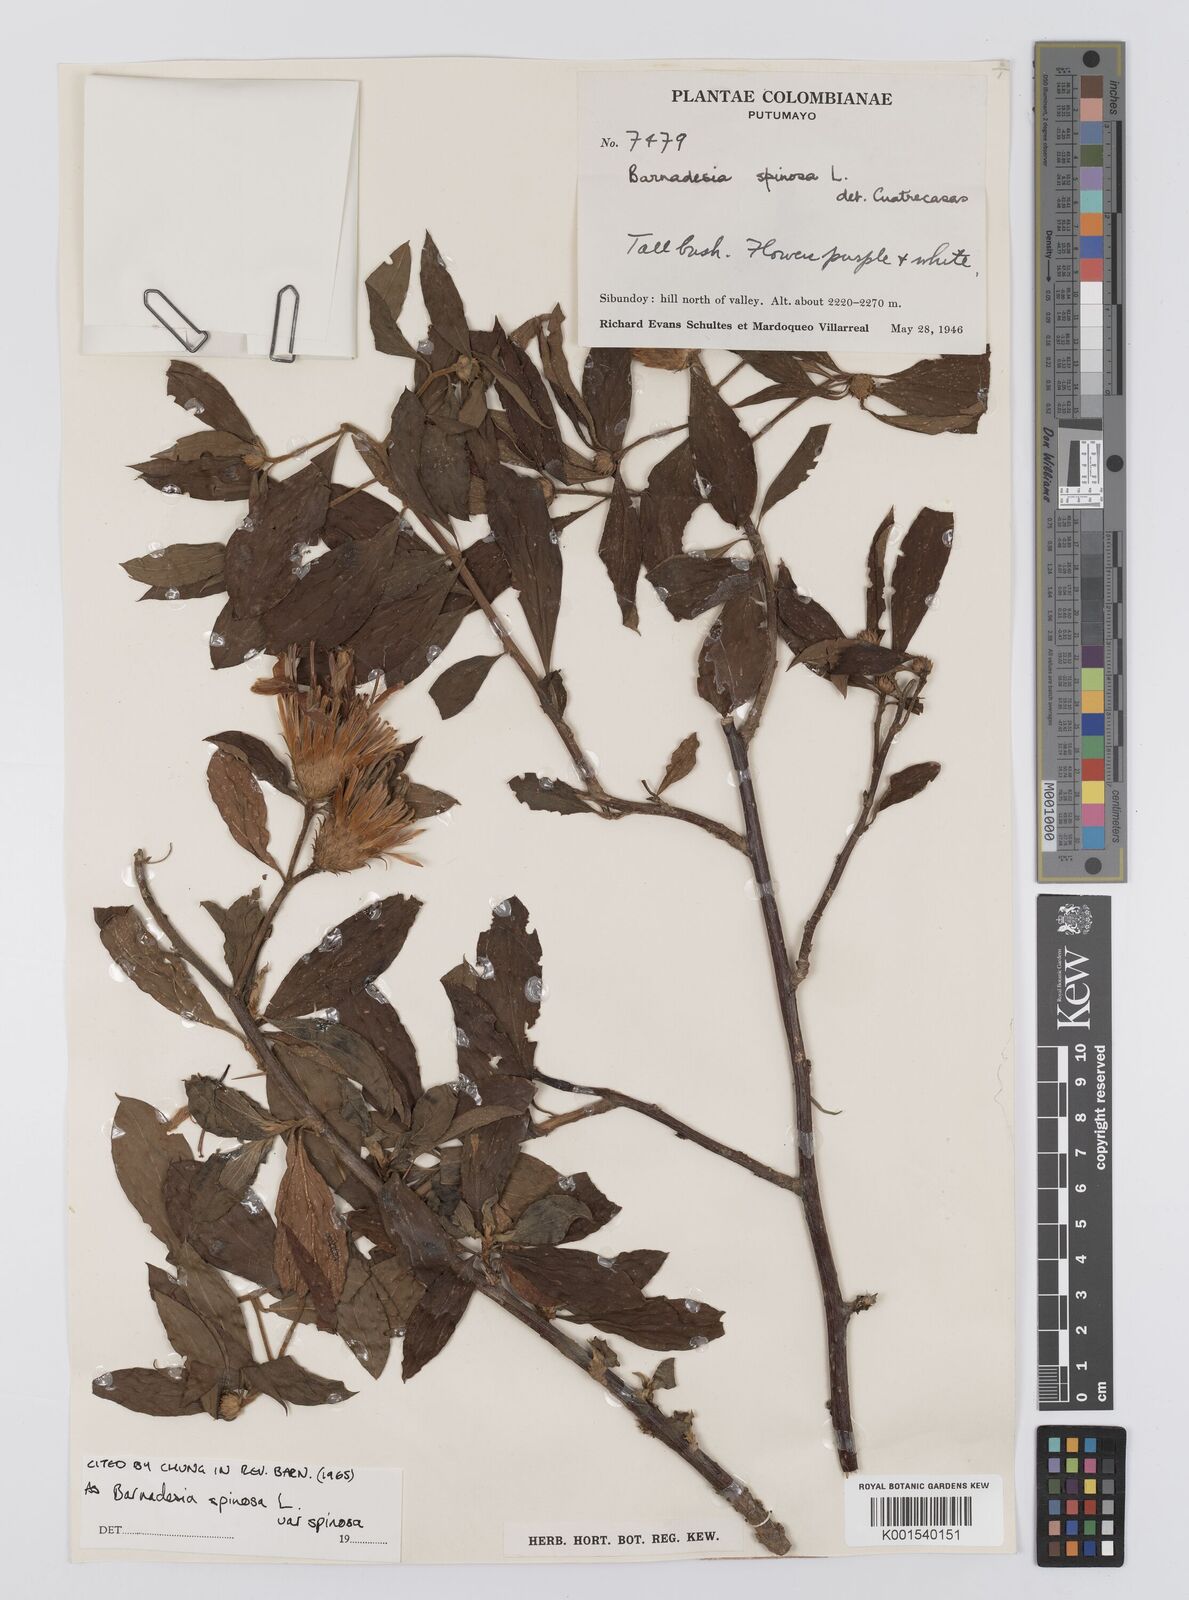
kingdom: Plantae
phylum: Tracheophyta
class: Magnoliopsida
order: Asterales
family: Asteraceae
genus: Barnadesia
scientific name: Barnadesia spinosa
